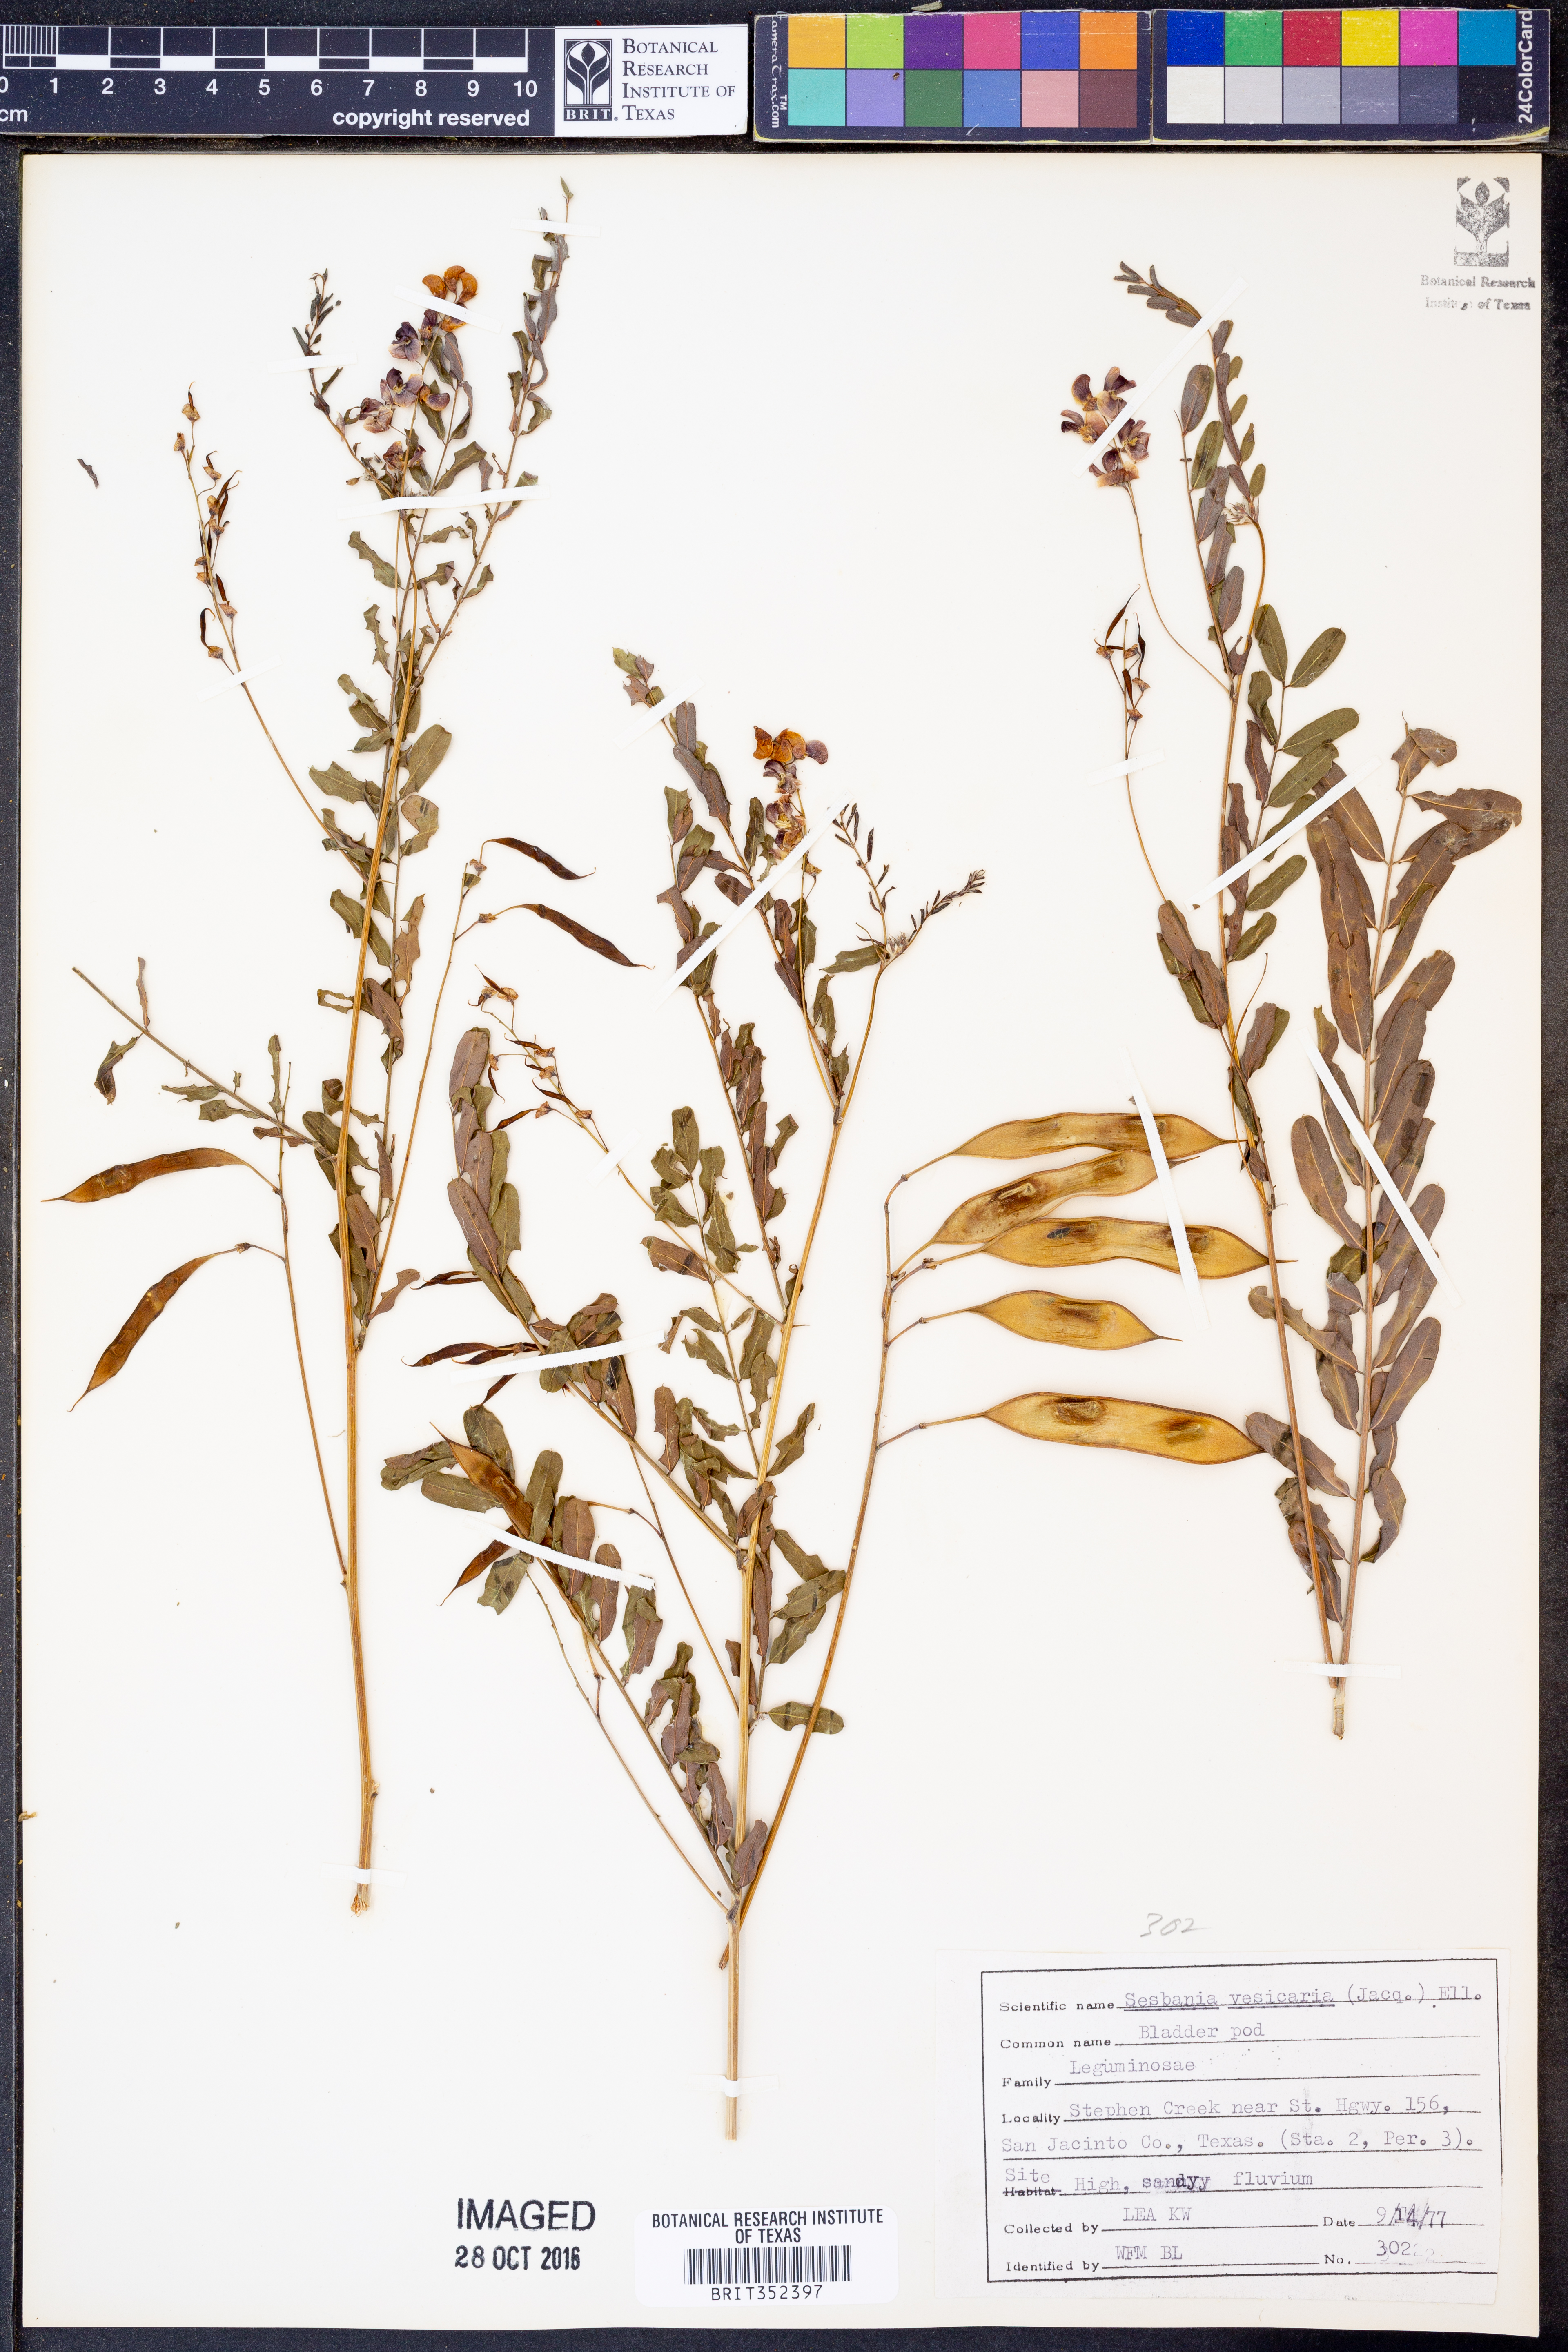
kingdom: Plantae
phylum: Tracheophyta
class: Magnoliopsida
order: Fabales
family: Fabaceae
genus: Sesbania
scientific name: Sesbania vesicaria
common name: Bagpod
